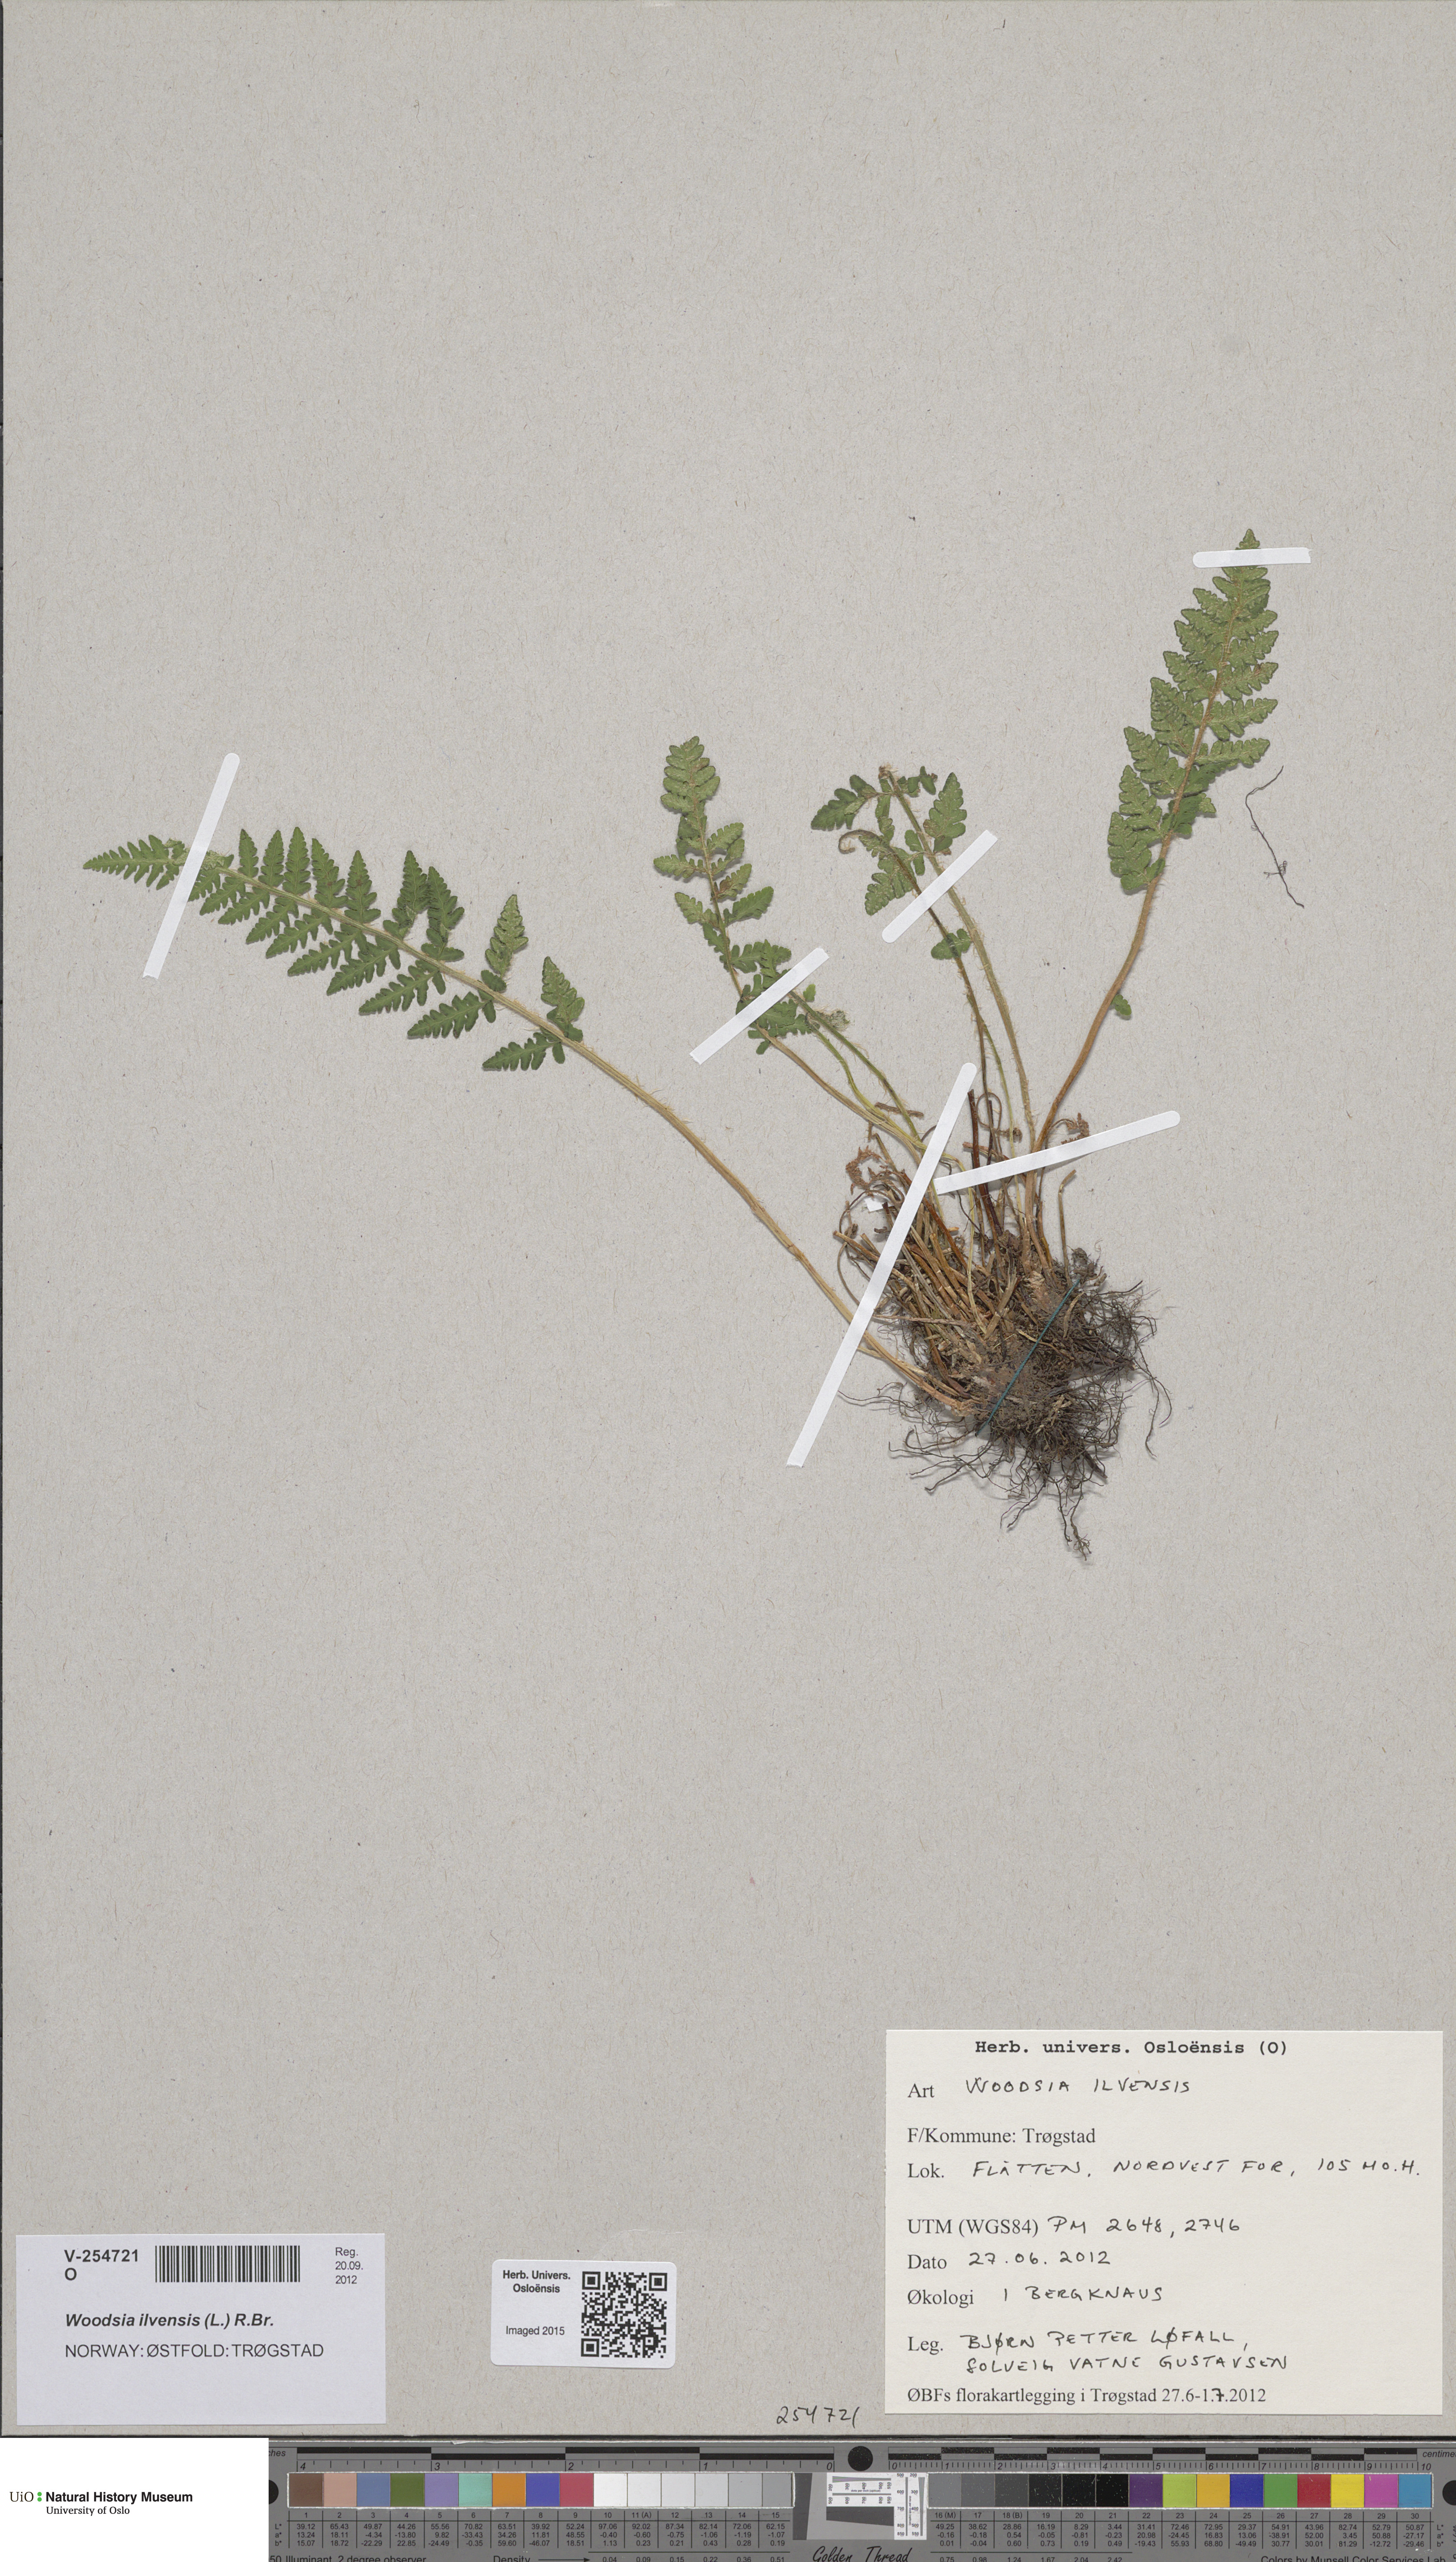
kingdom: Plantae
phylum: Tracheophyta
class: Polypodiopsida
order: Polypodiales
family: Woodsiaceae
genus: Woodsia
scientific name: Woodsia ilvensis
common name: Fragrant woodsia
